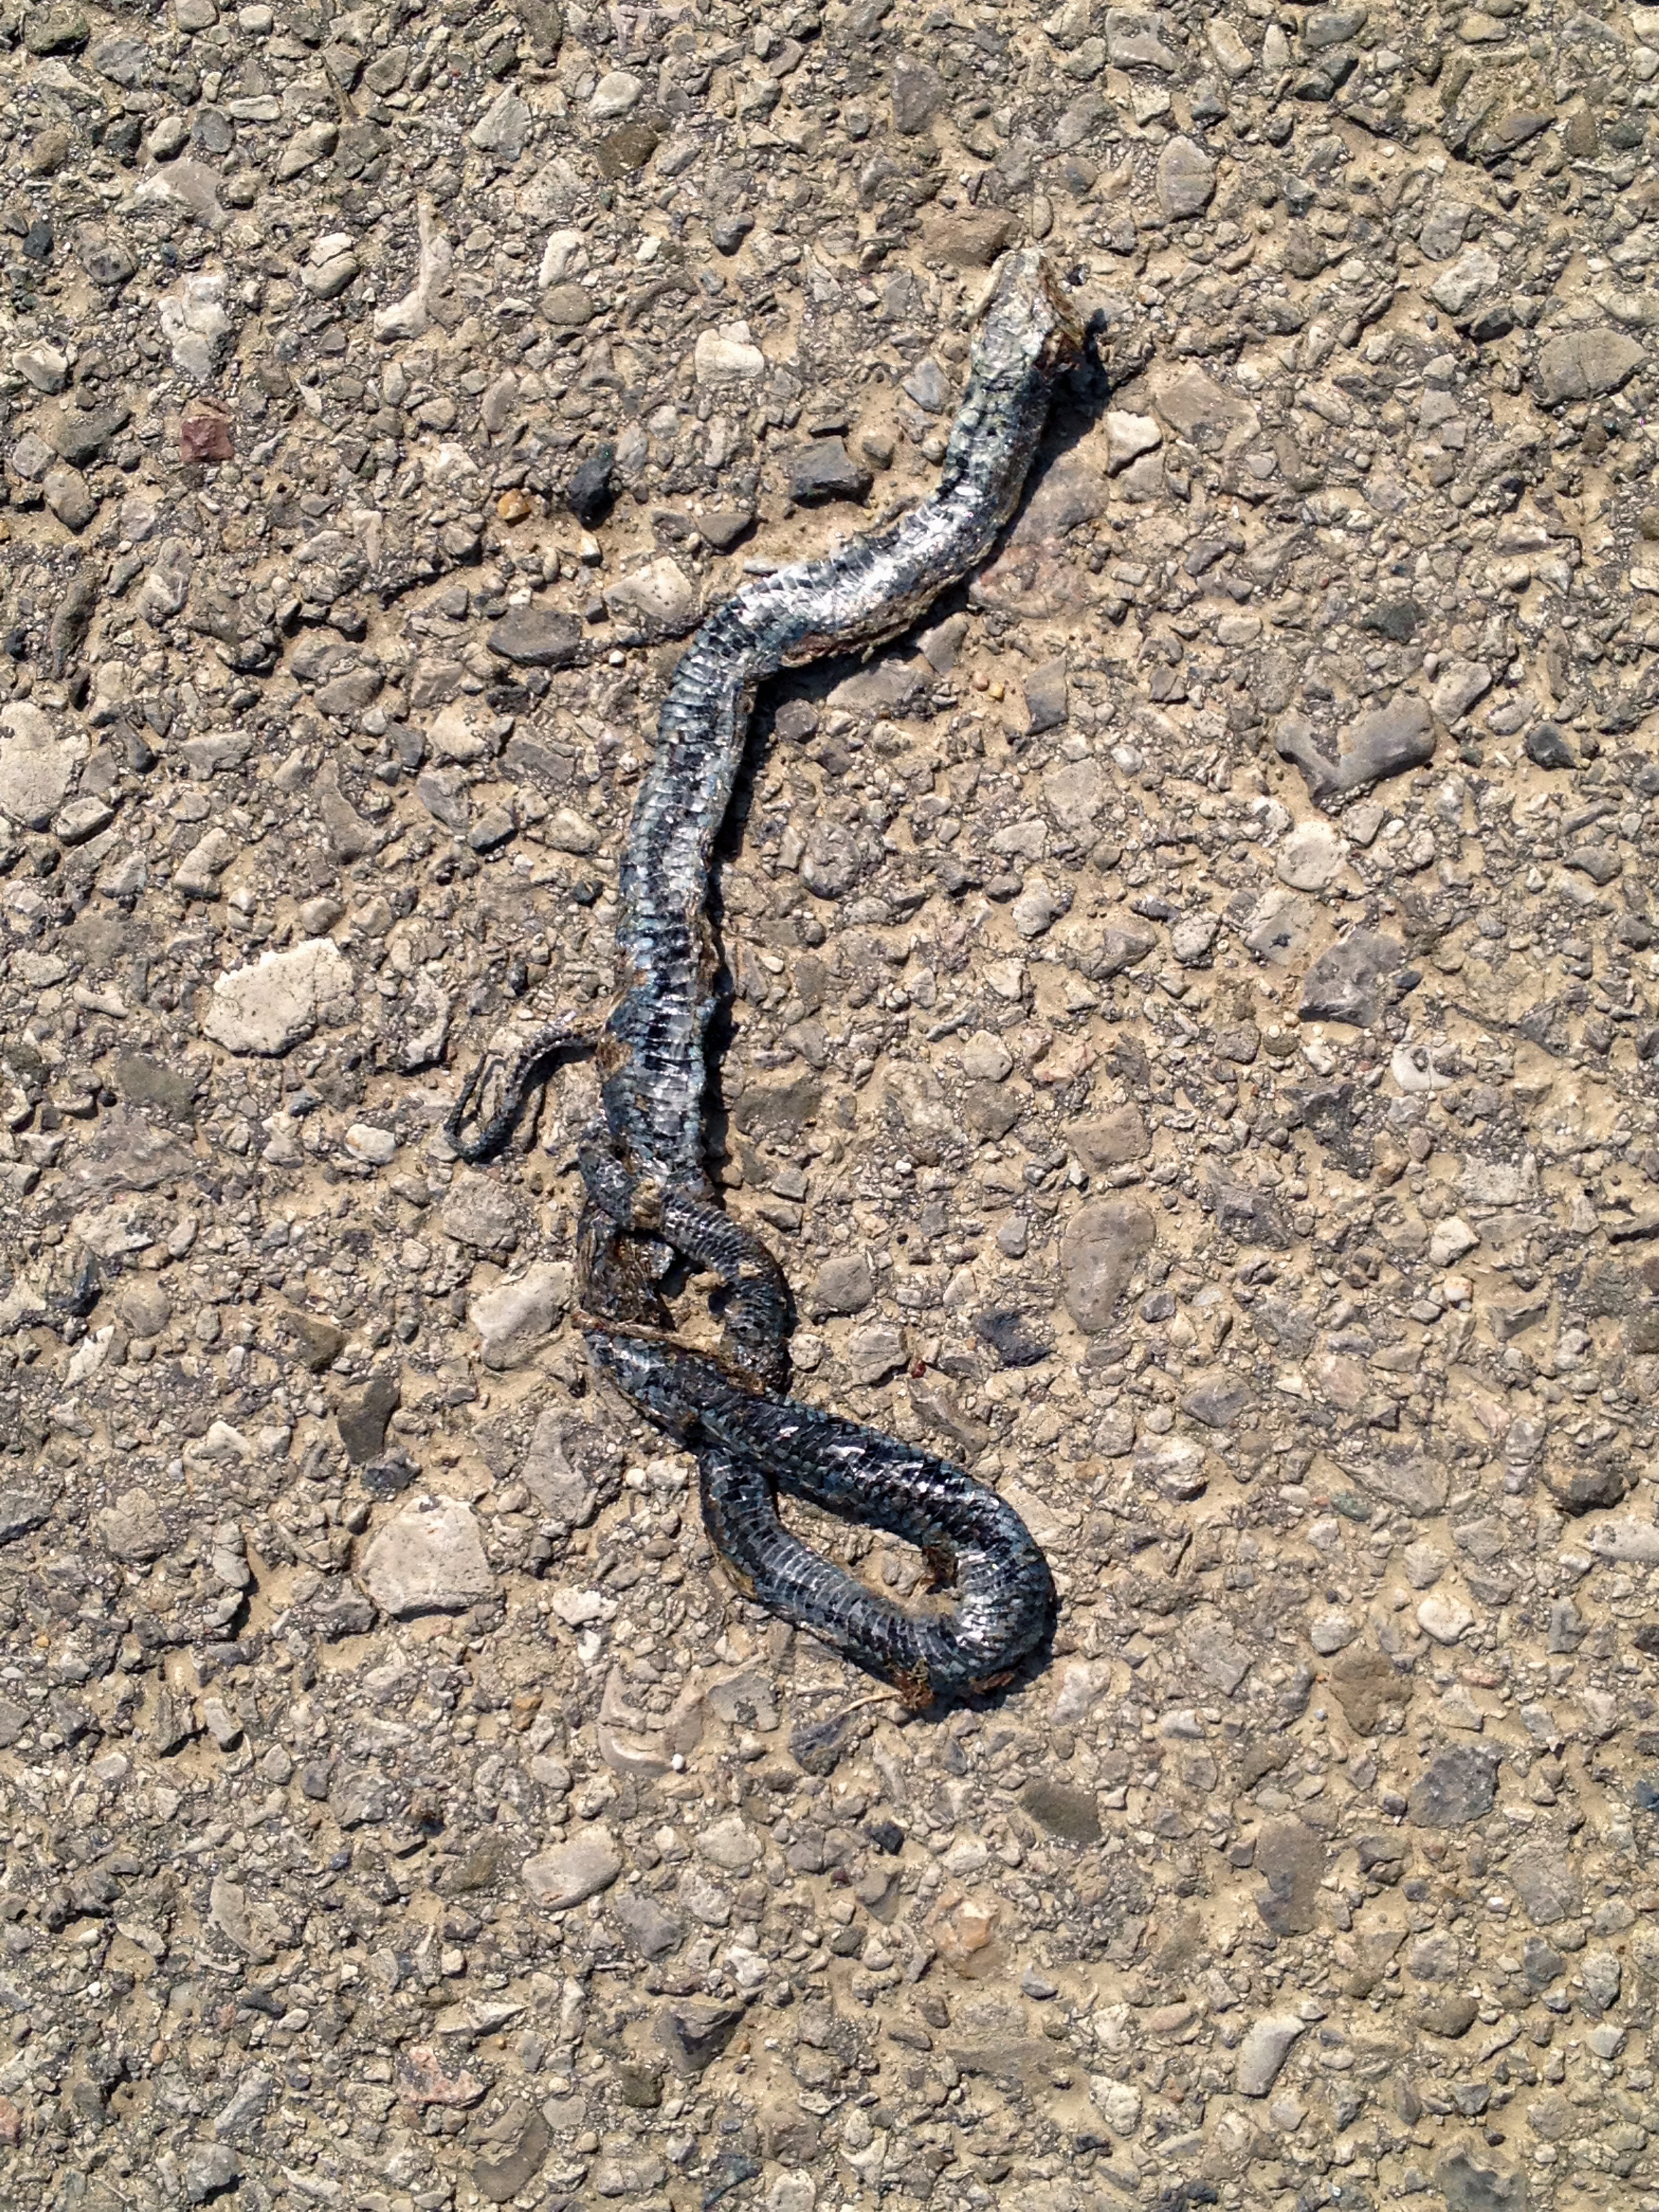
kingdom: Animalia
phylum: Chordata
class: Squamata
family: Colubridae
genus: Natrix
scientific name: Natrix natrix
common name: Grass snake
